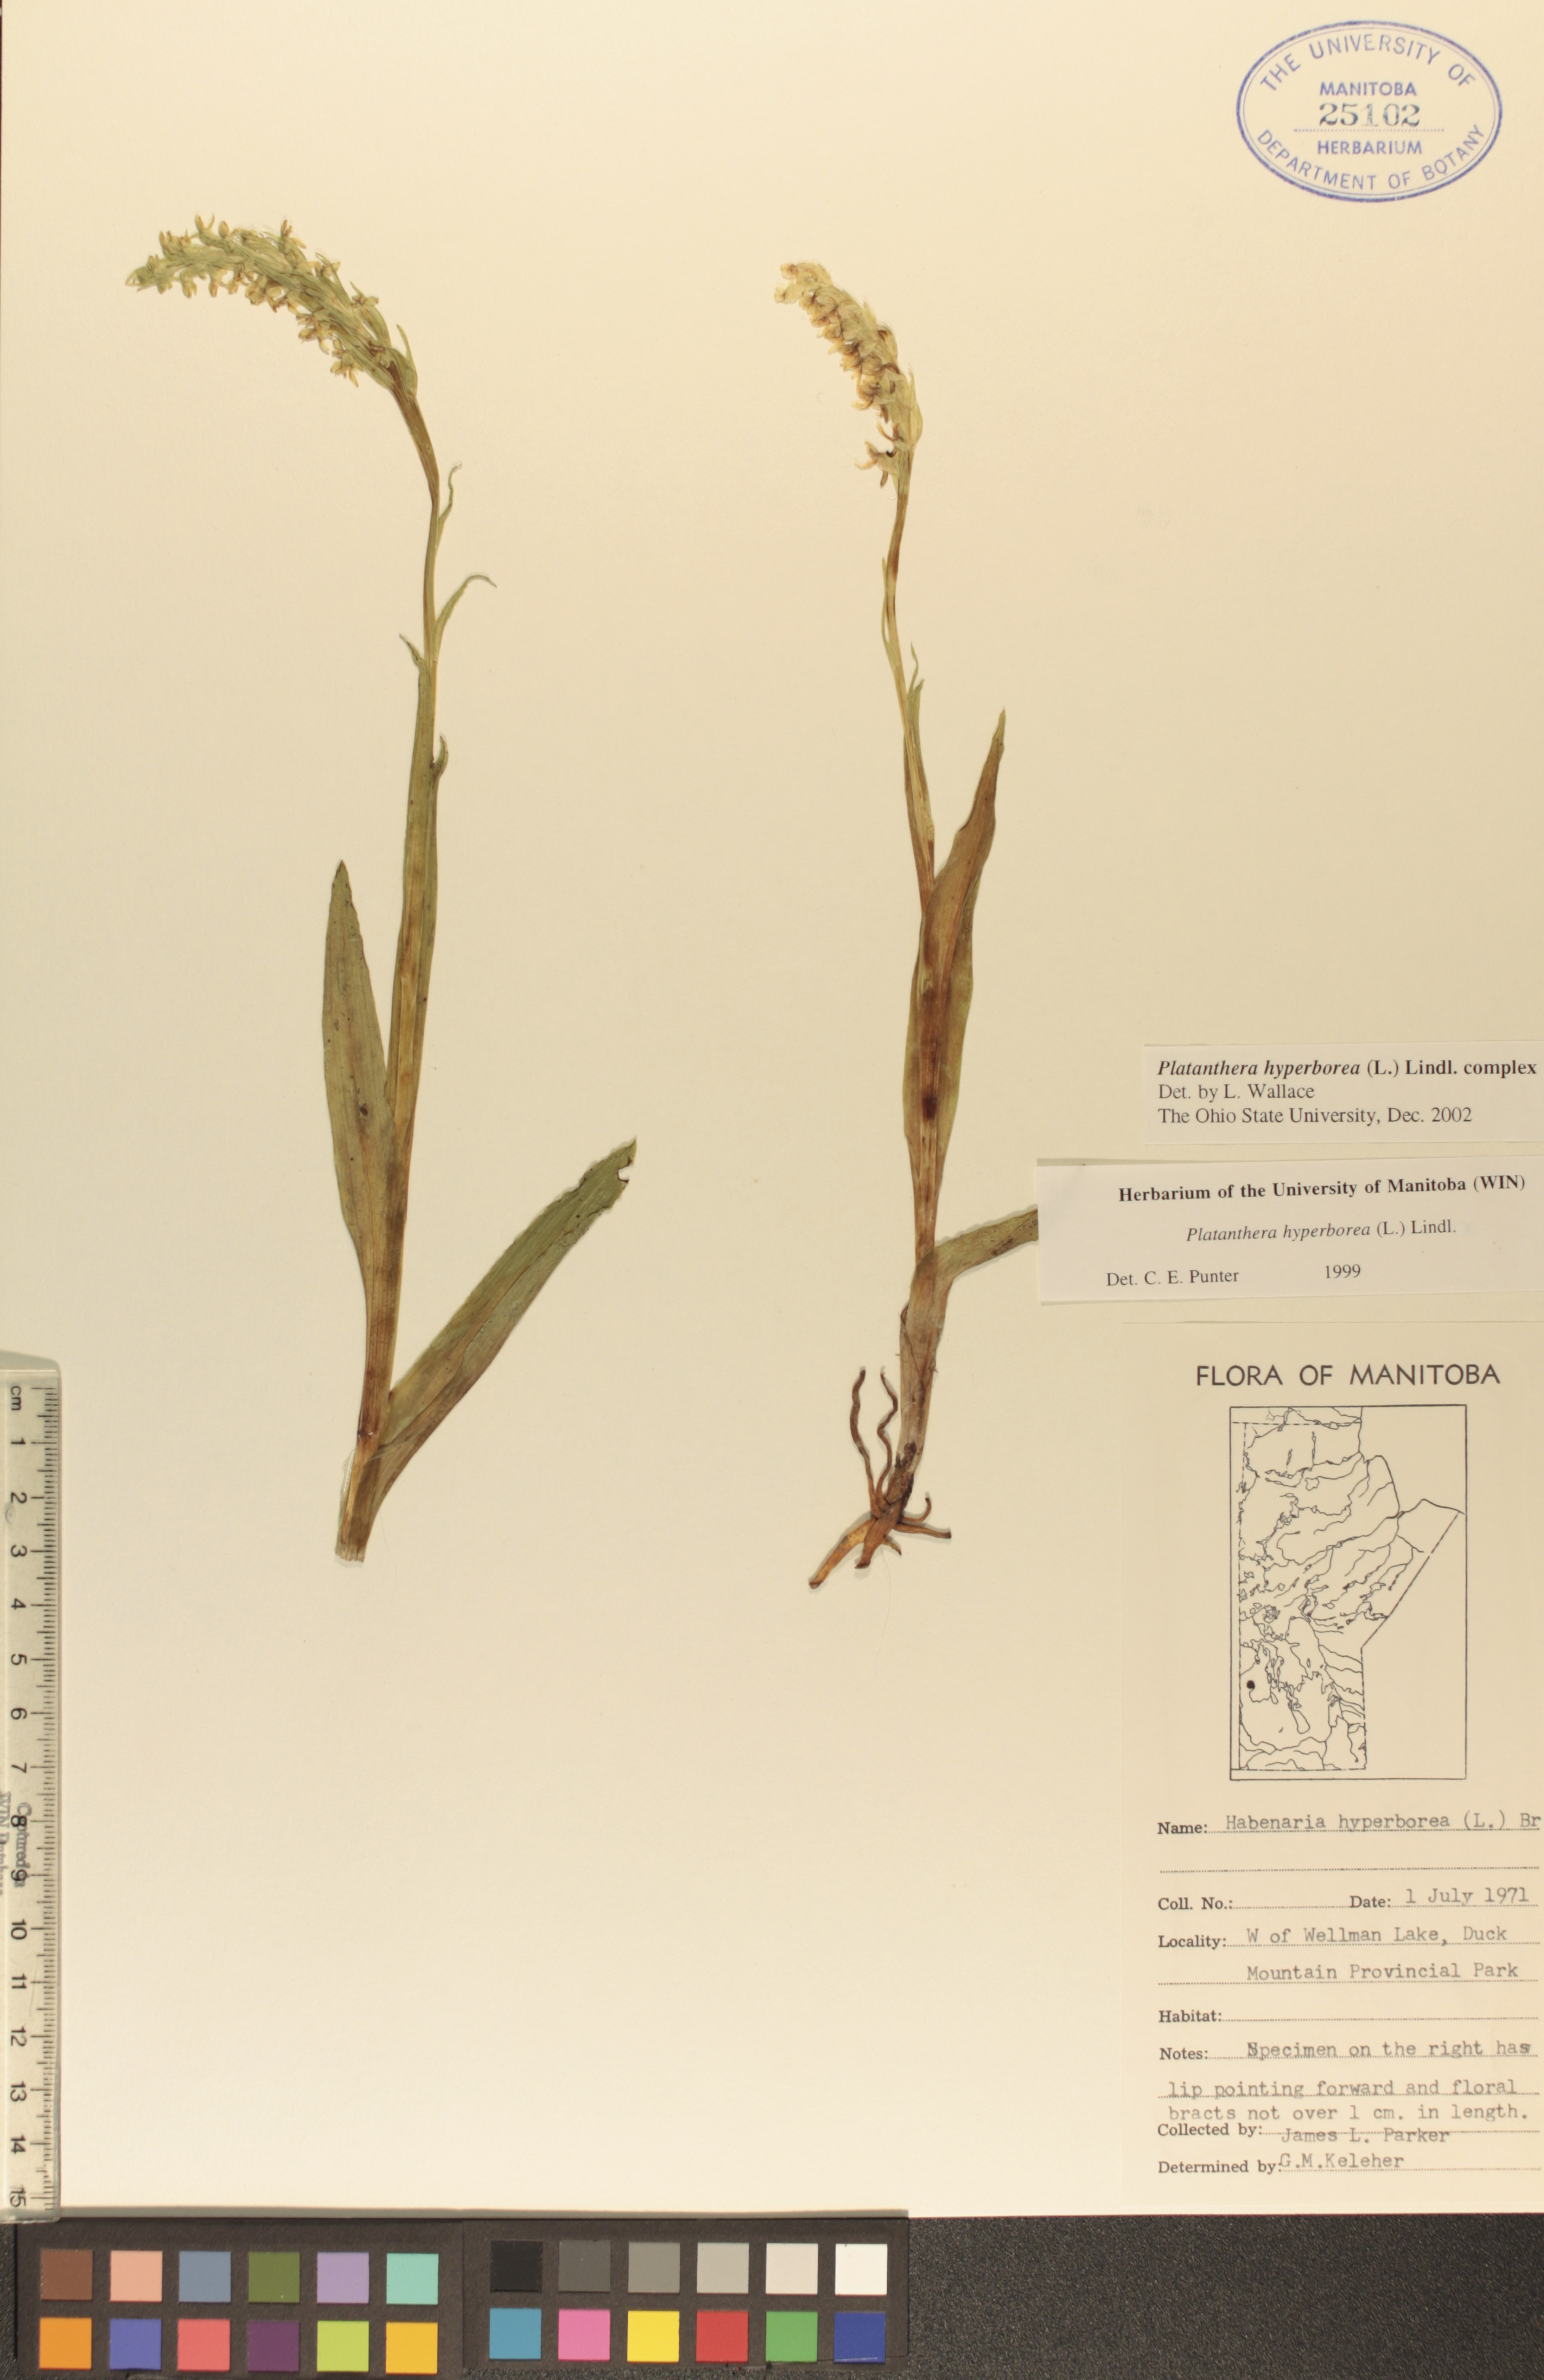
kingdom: Plantae
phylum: Tracheophyta
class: Liliopsida
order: Asparagales
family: Orchidaceae
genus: Platanthera
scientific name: Platanthera hyperborea
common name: Northern green orchid
